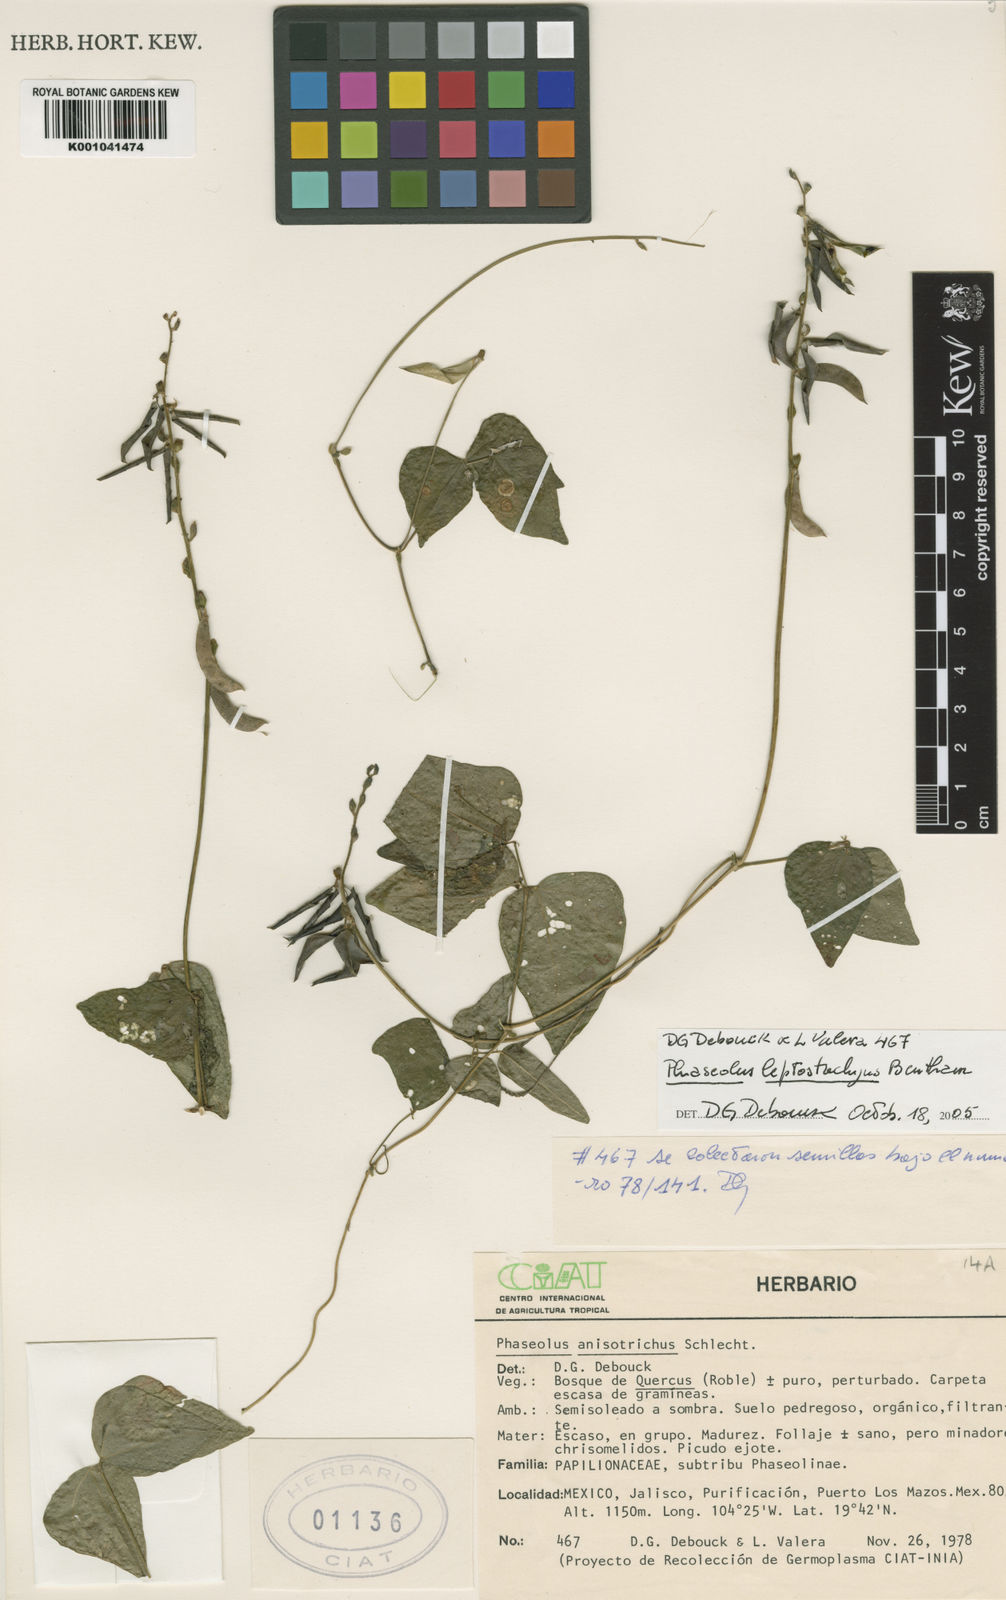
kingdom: Plantae
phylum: Tracheophyta
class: Magnoliopsida
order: Fabales
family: Fabaceae
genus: Phaseolus
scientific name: Phaseolus
